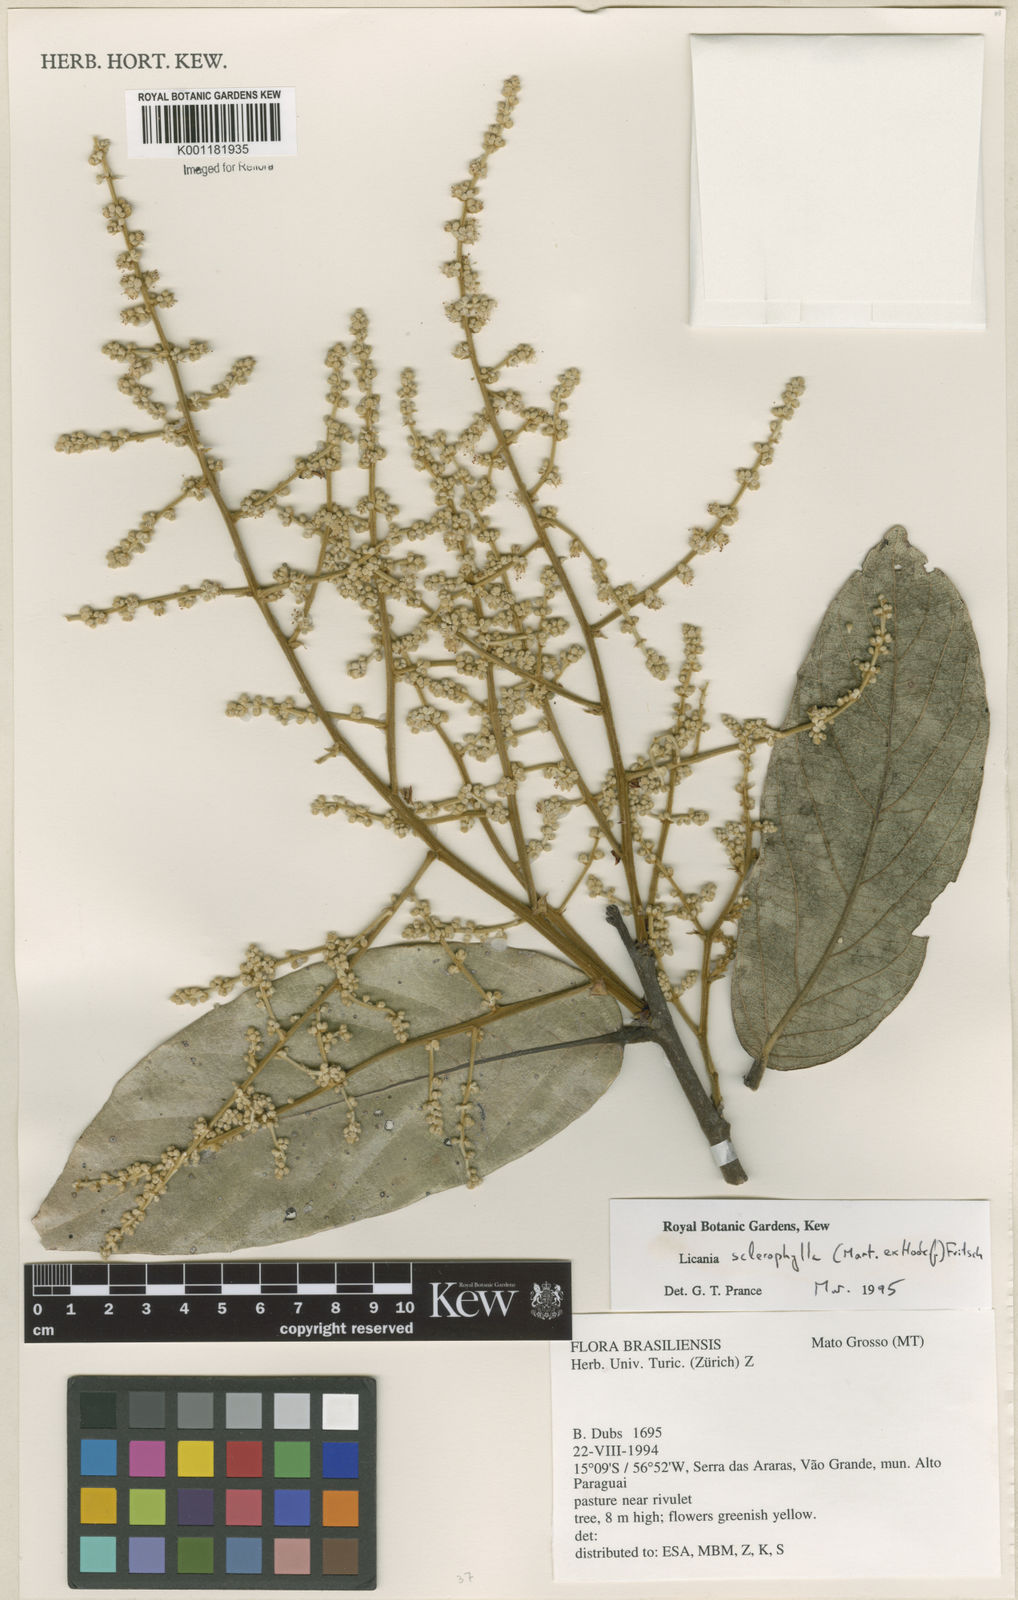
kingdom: Plantae
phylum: Tracheophyta
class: Magnoliopsida
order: Malpighiales
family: Chrysobalanaceae
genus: Leptobalanus
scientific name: Leptobalanus sclerophyllus
